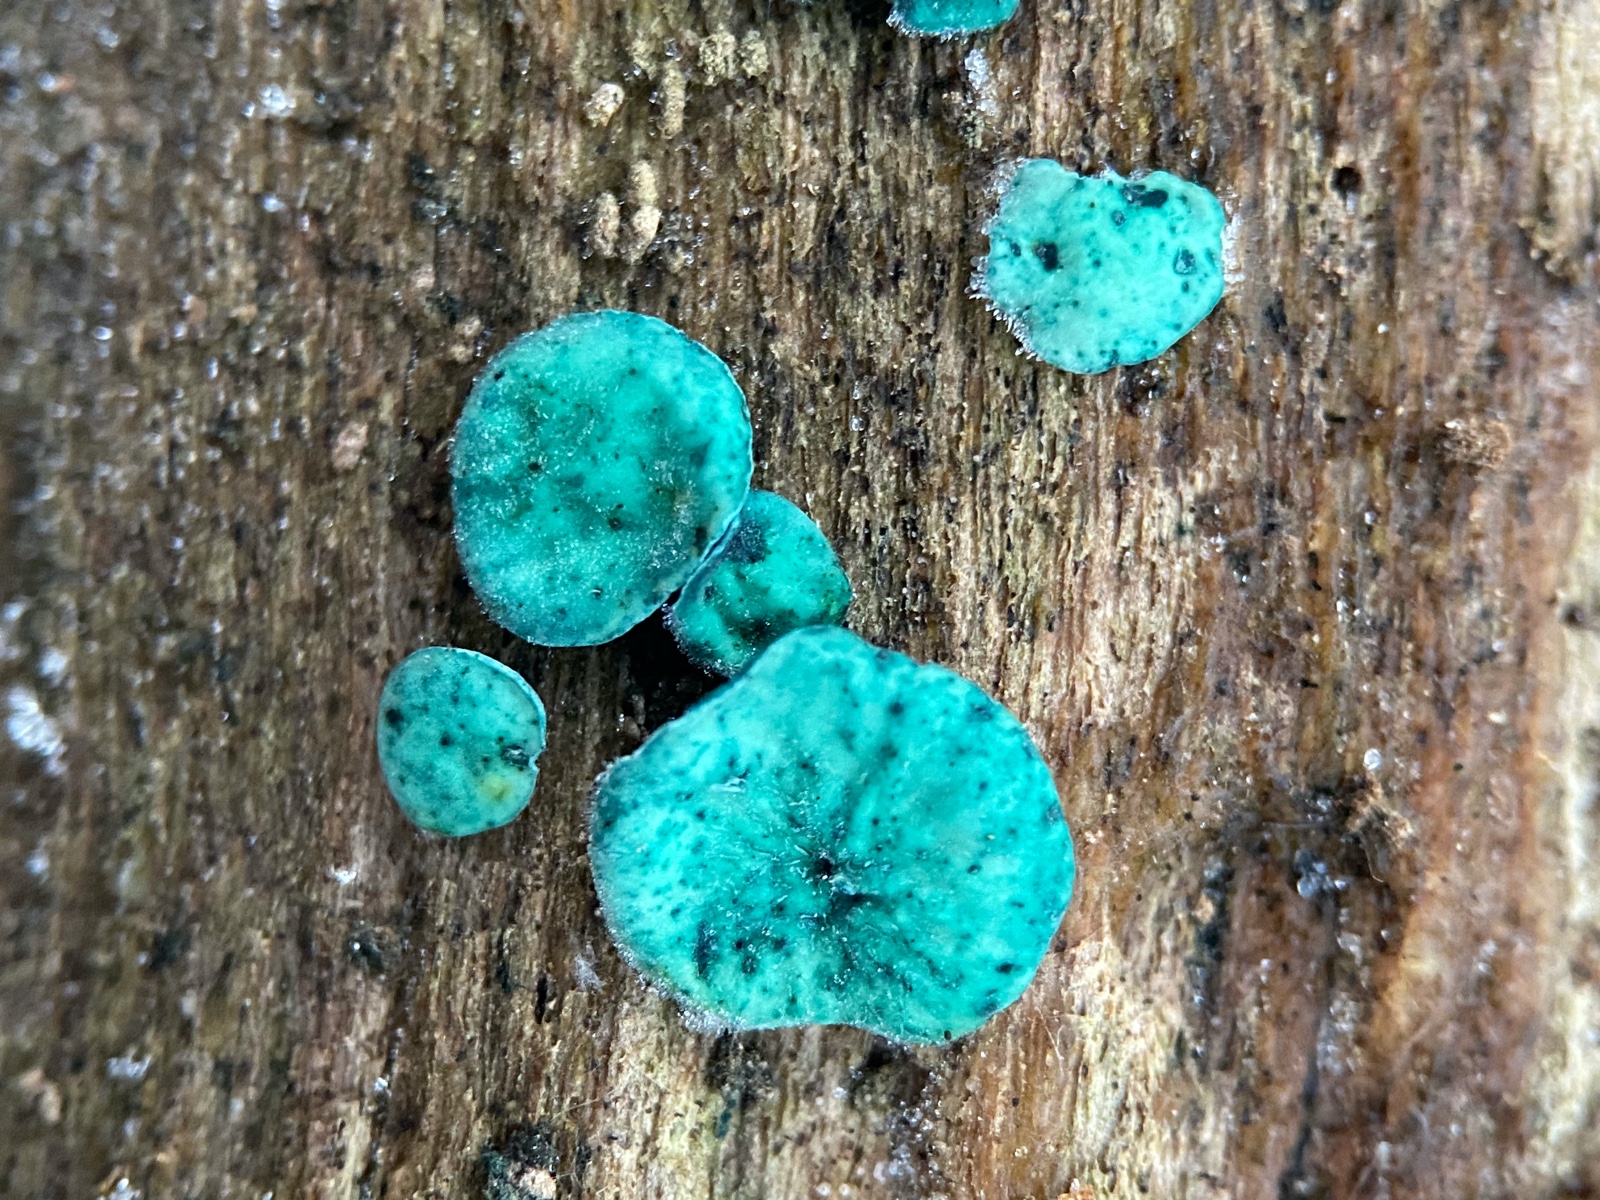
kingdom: Fungi
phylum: Ascomycota
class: Leotiomycetes
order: Helotiales
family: Chlorociboriaceae
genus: Chlorociboria
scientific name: Chlorociboria aeruginascens
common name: almindelig grønskive
